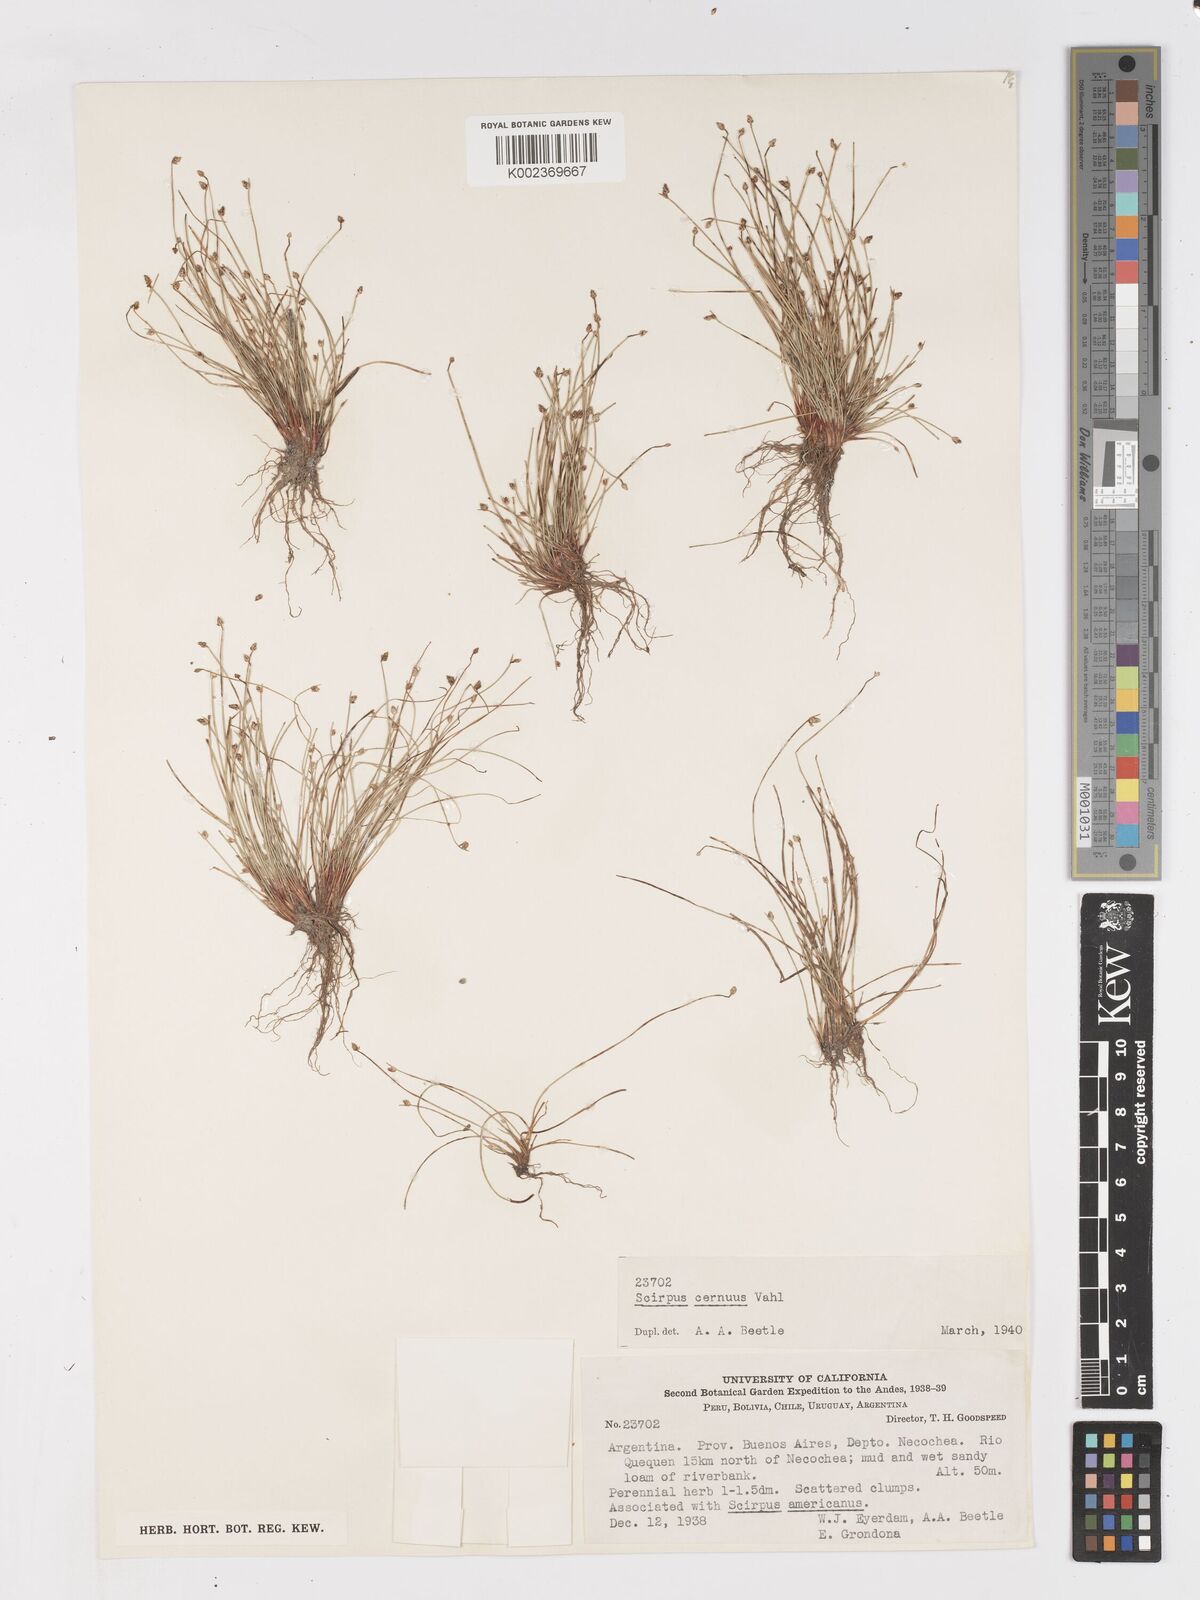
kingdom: Plantae
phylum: Tracheophyta
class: Liliopsida
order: Poales
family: Cyperaceae
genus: Isolepis
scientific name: Isolepis cernua
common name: Slender club-rush
